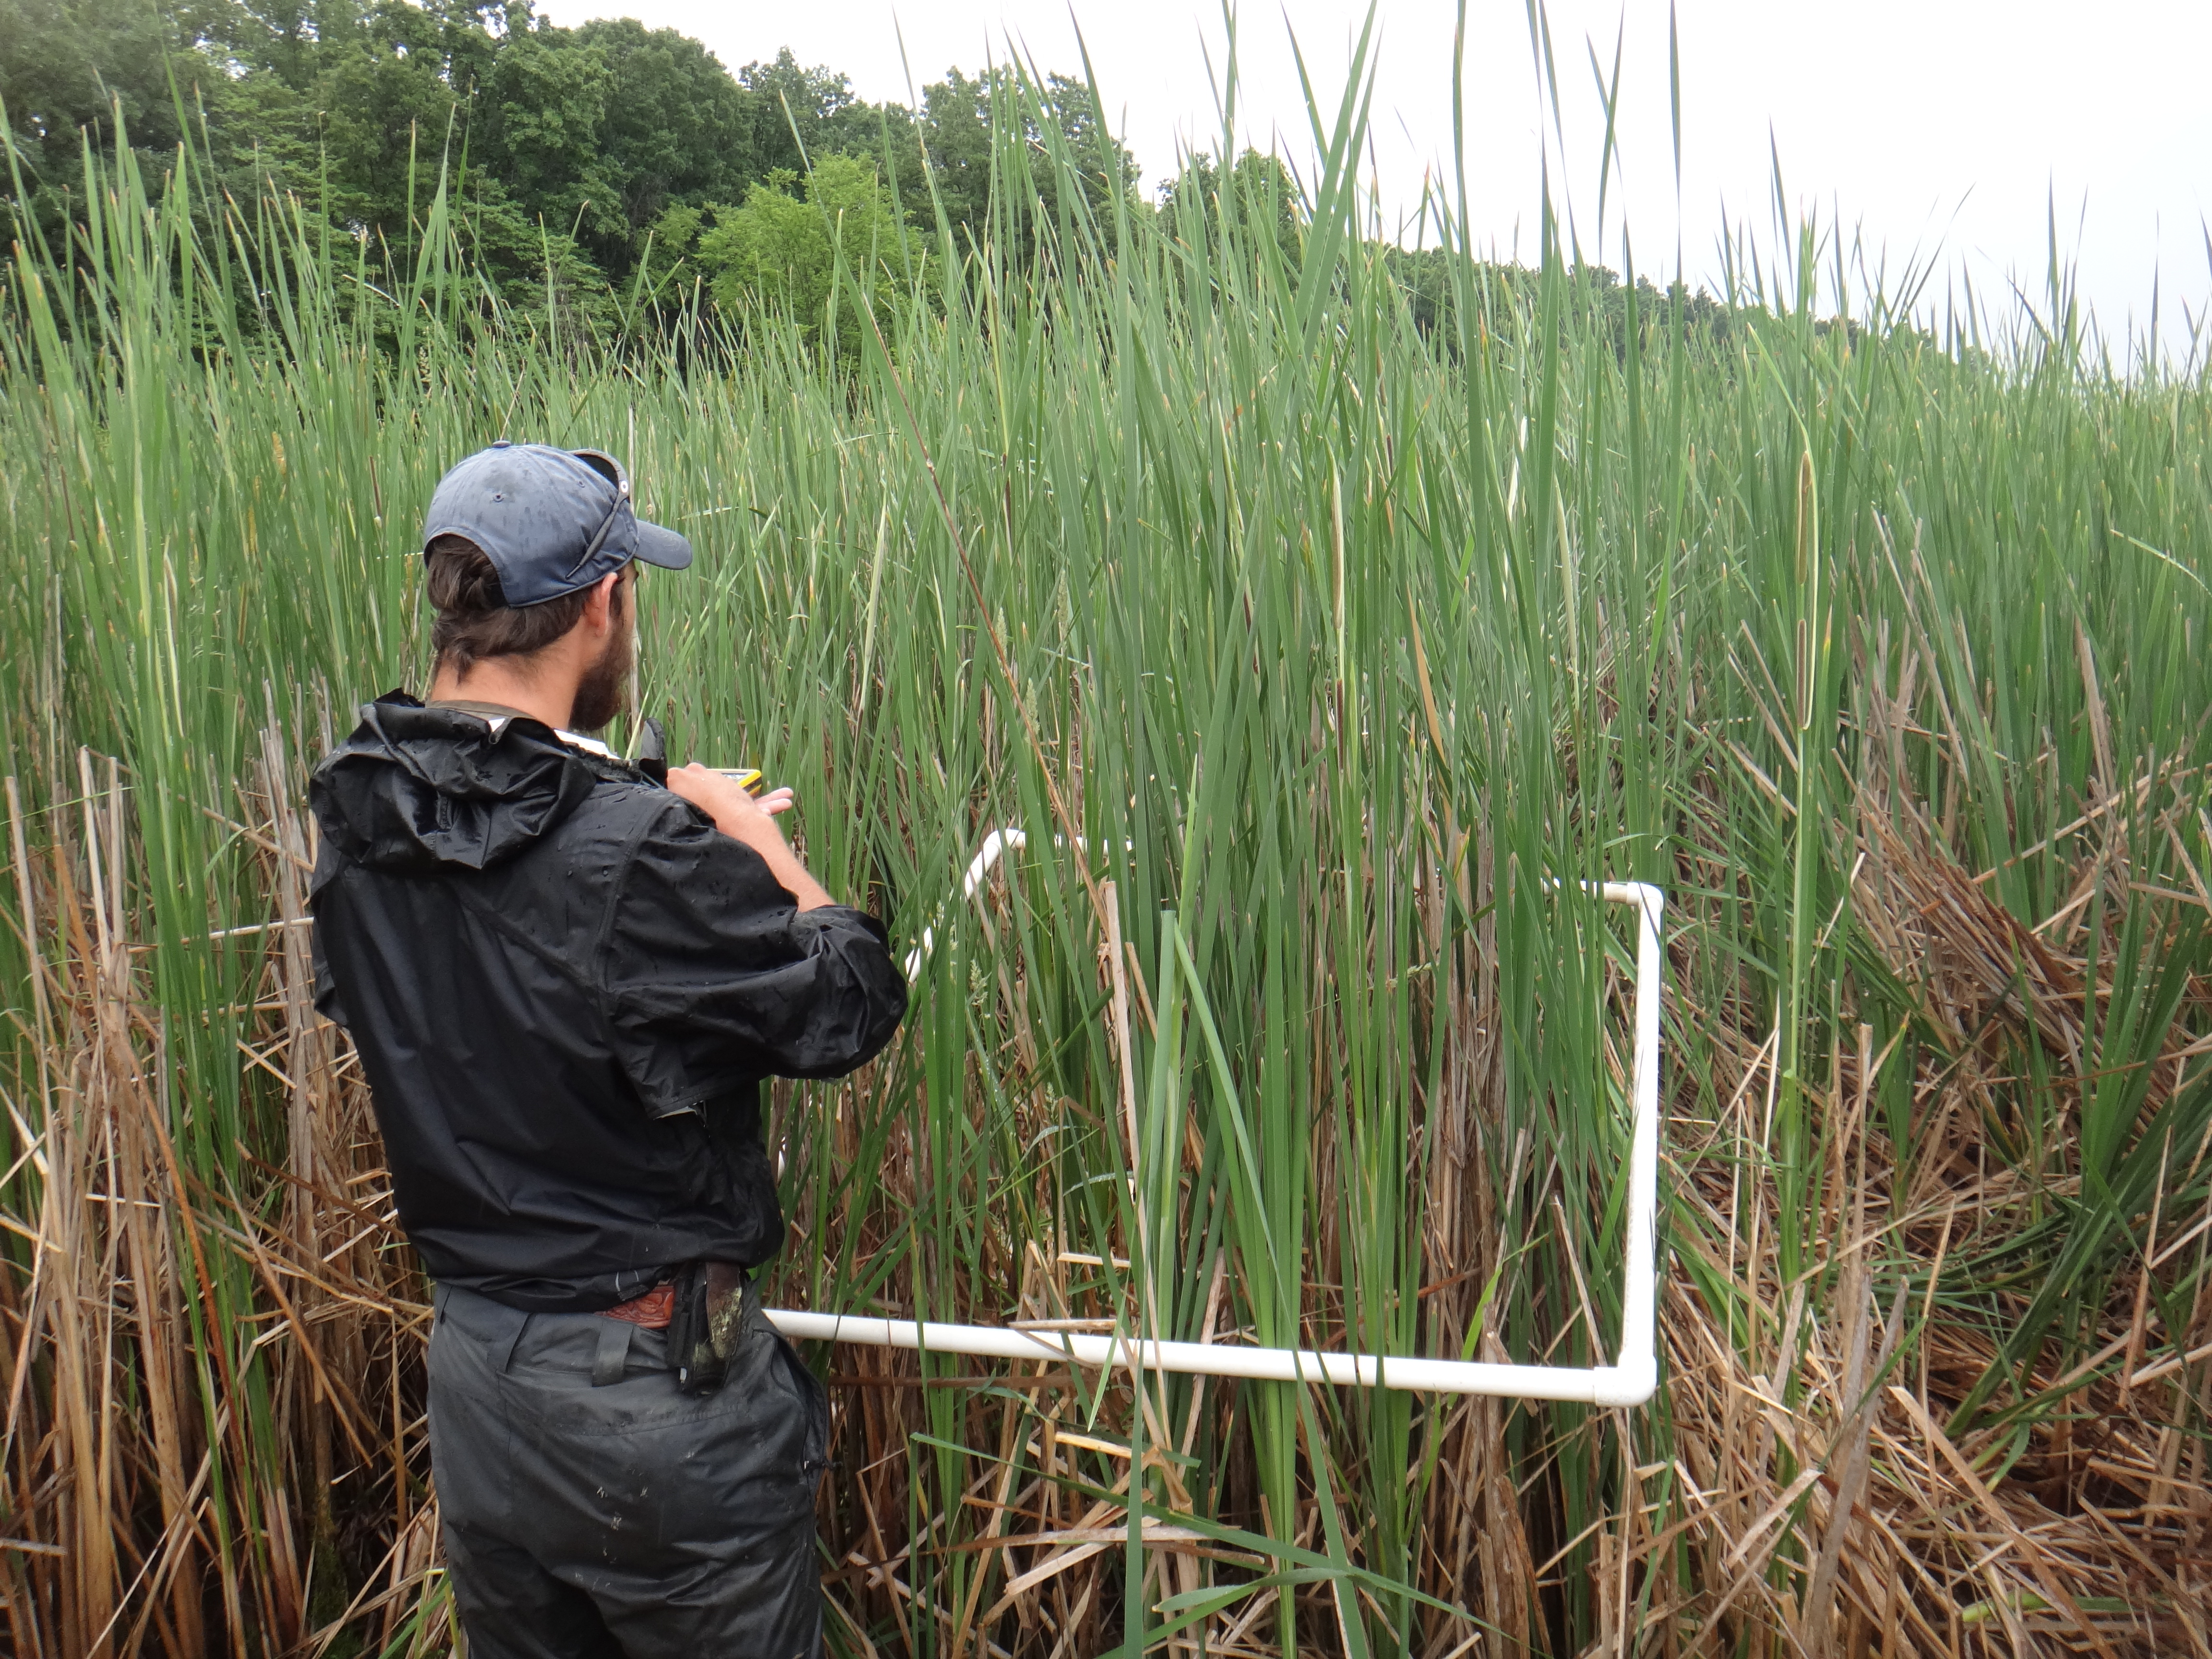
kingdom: Plantae
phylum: Tracheophyta
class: Magnoliopsida
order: Caryophyllales
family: Polygonaceae
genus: Persicaria
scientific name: Persicaria amphibia
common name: Amphibious bistort
